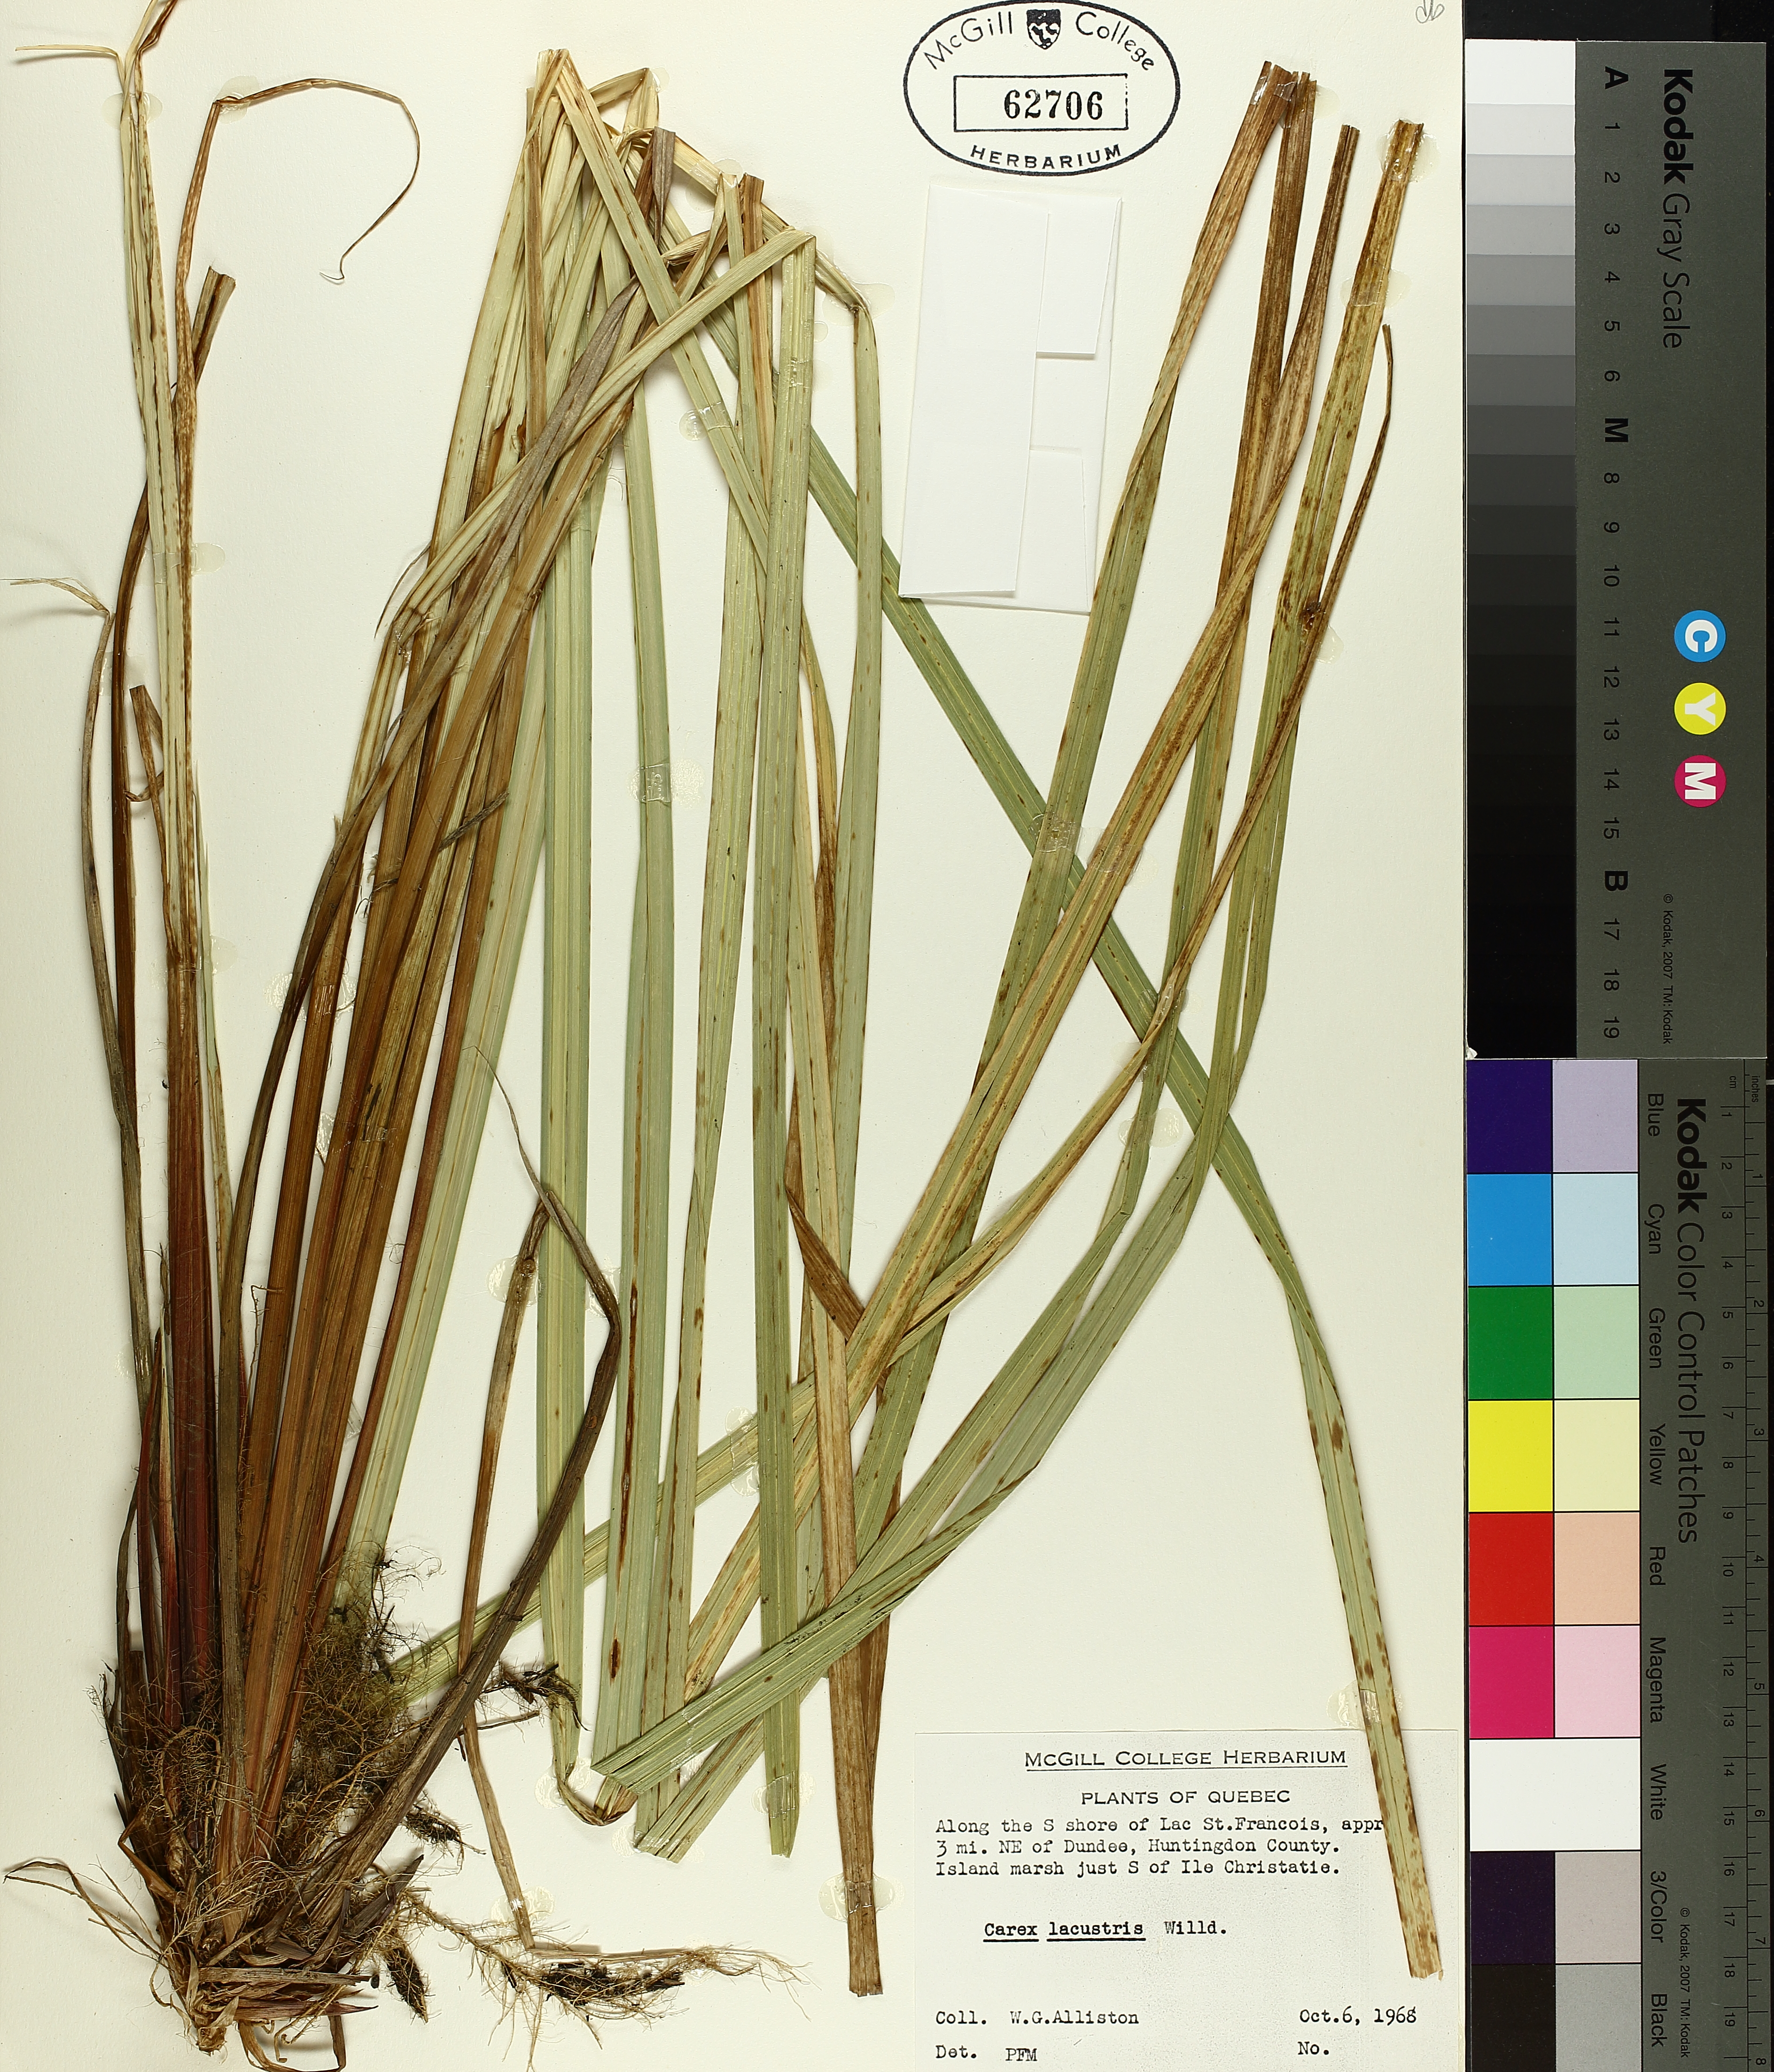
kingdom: Plantae
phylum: Tracheophyta
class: Liliopsida
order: Poales
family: Cyperaceae
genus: Carex
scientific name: Carex lacustris
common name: Common lake sedge
